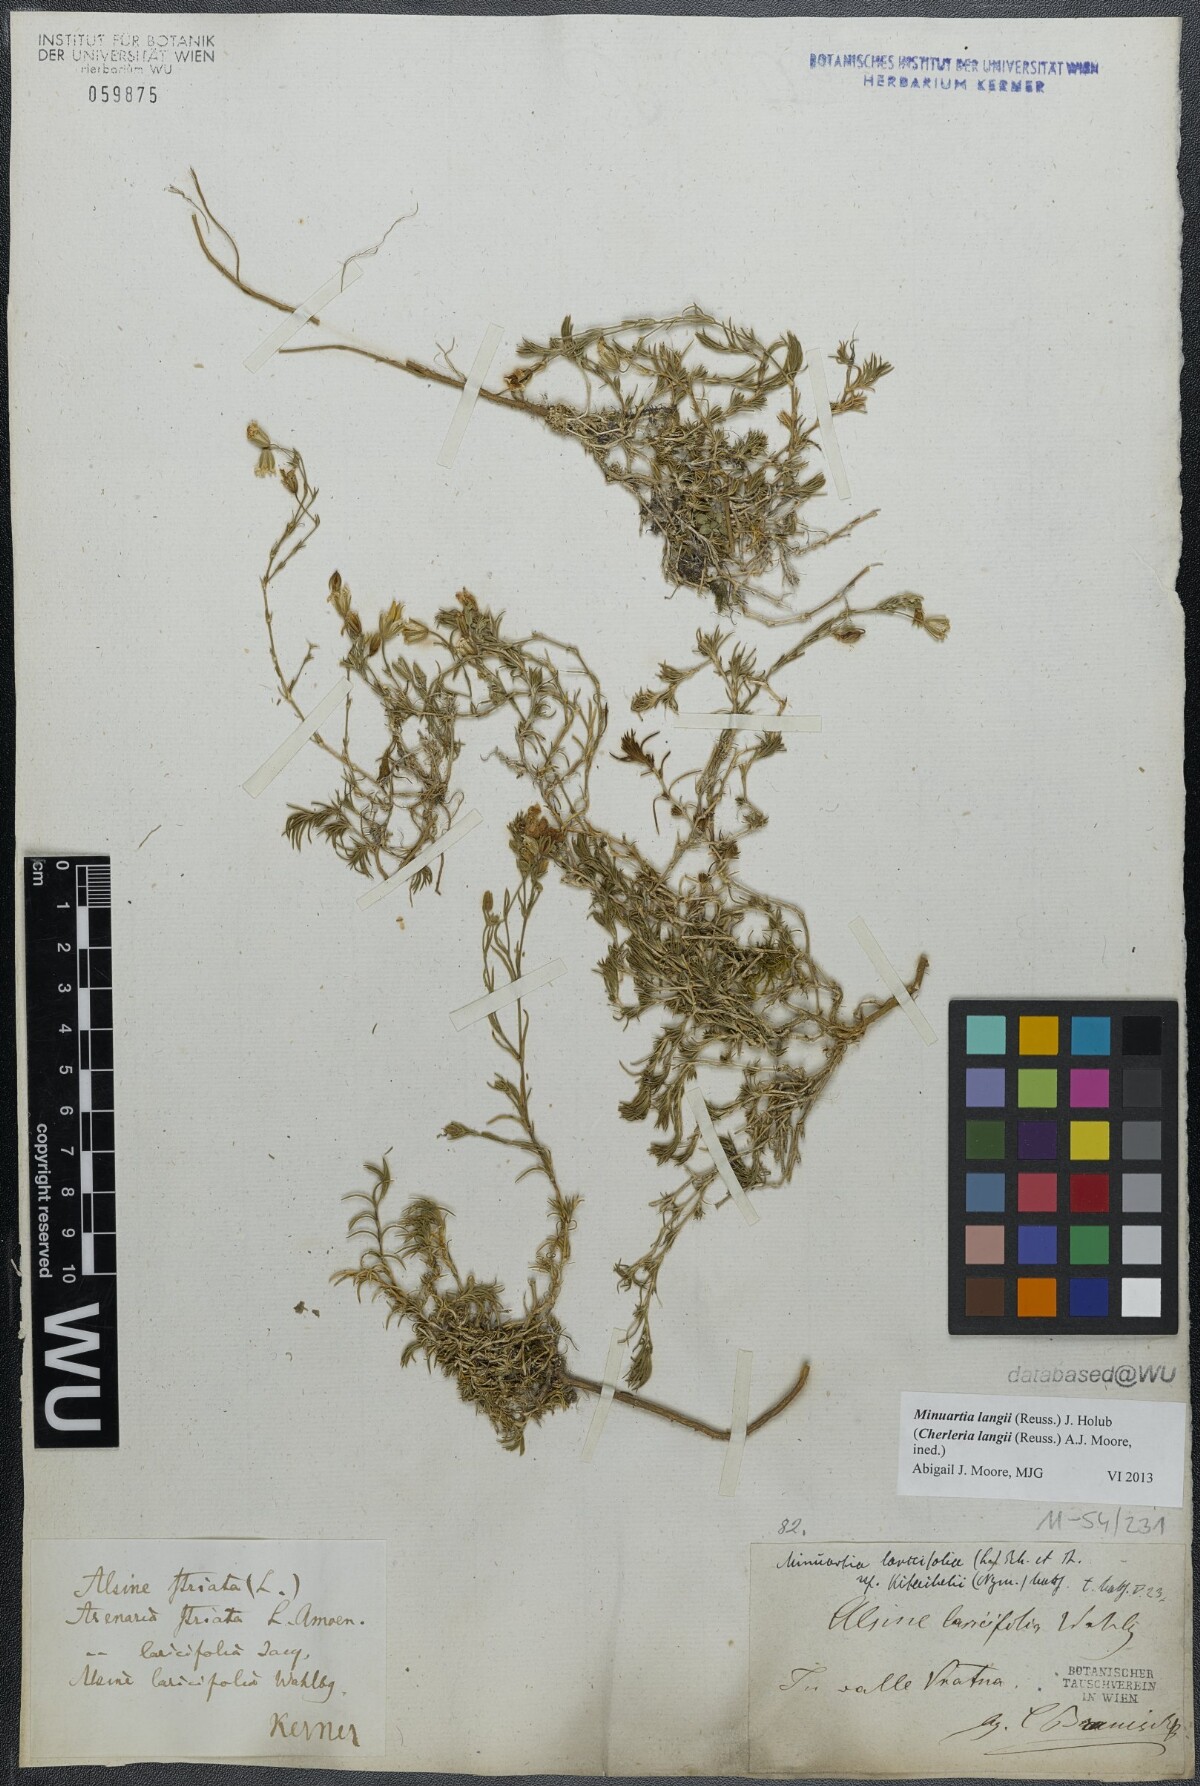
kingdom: Plantae
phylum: Tracheophyta
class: Magnoliopsida
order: Caryophyllales
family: Caryophyllaceae
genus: Cherleria
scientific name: Cherleria langii
